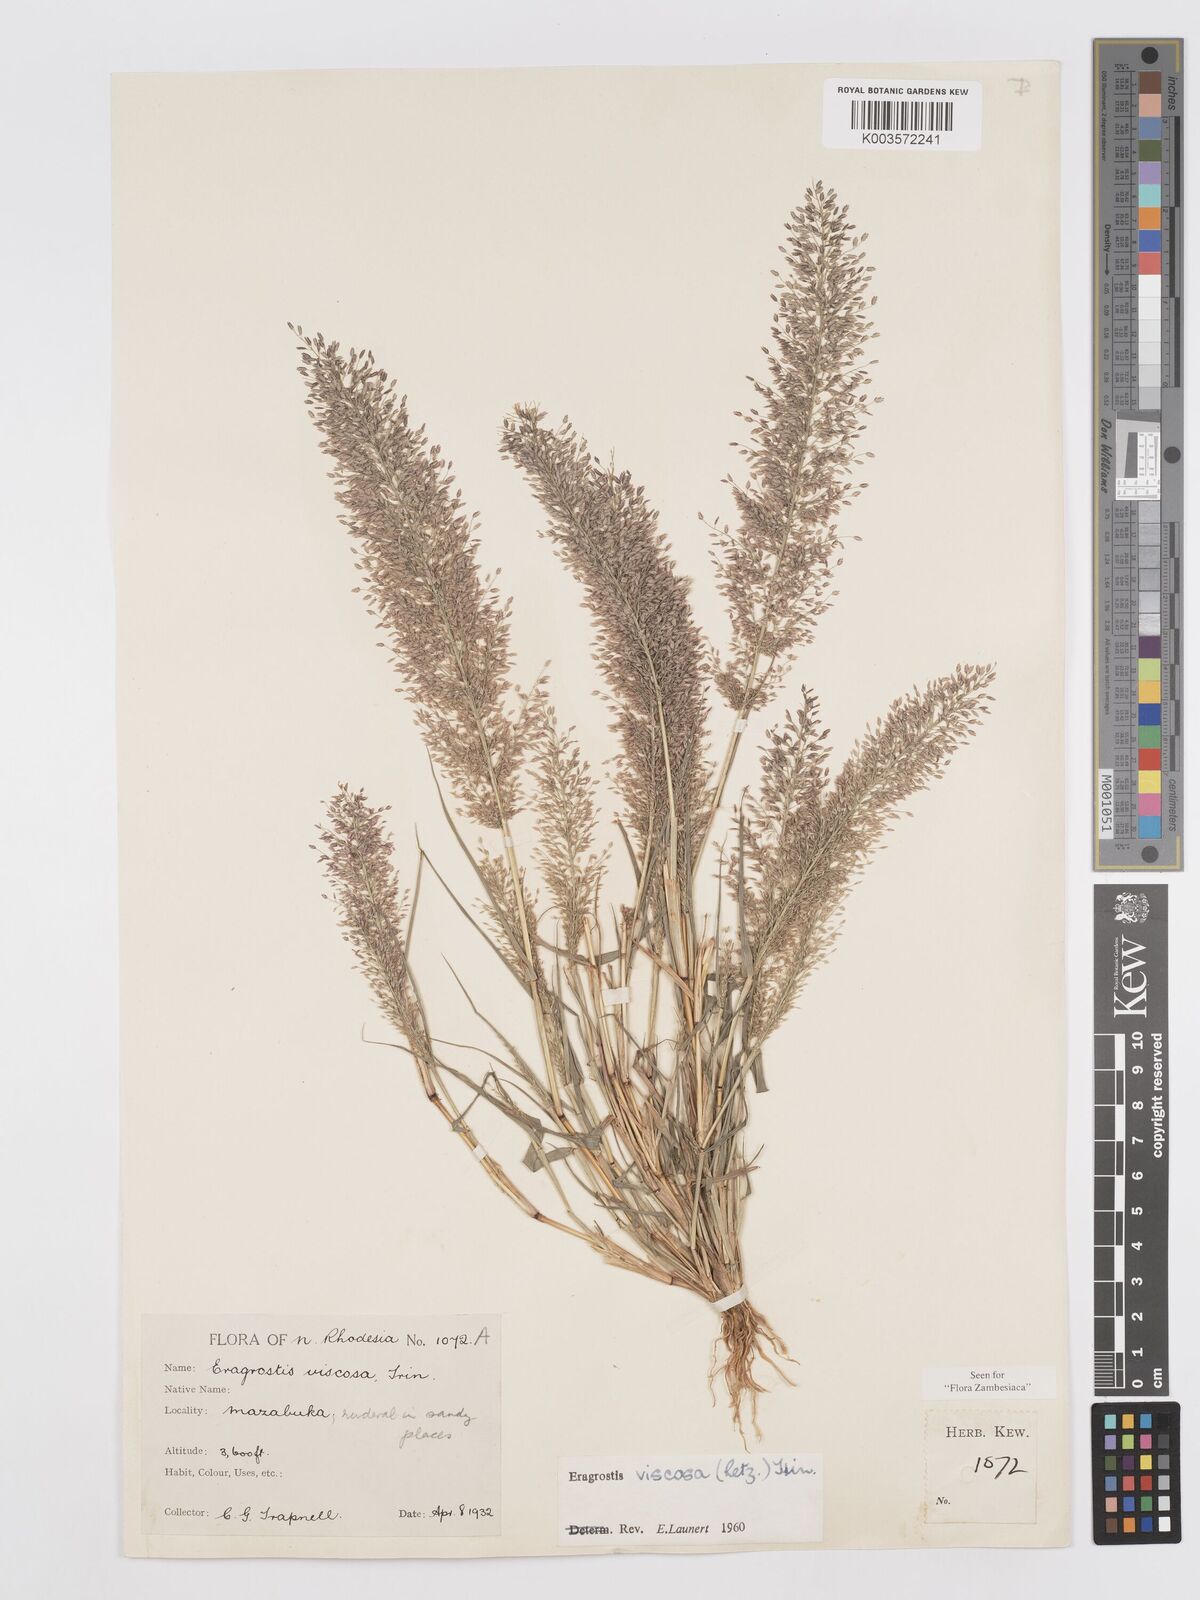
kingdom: Plantae
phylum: Tracheophyta
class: Liliopsida
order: Poales
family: Poaceae
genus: Eragrostis
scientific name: Eragrostis
